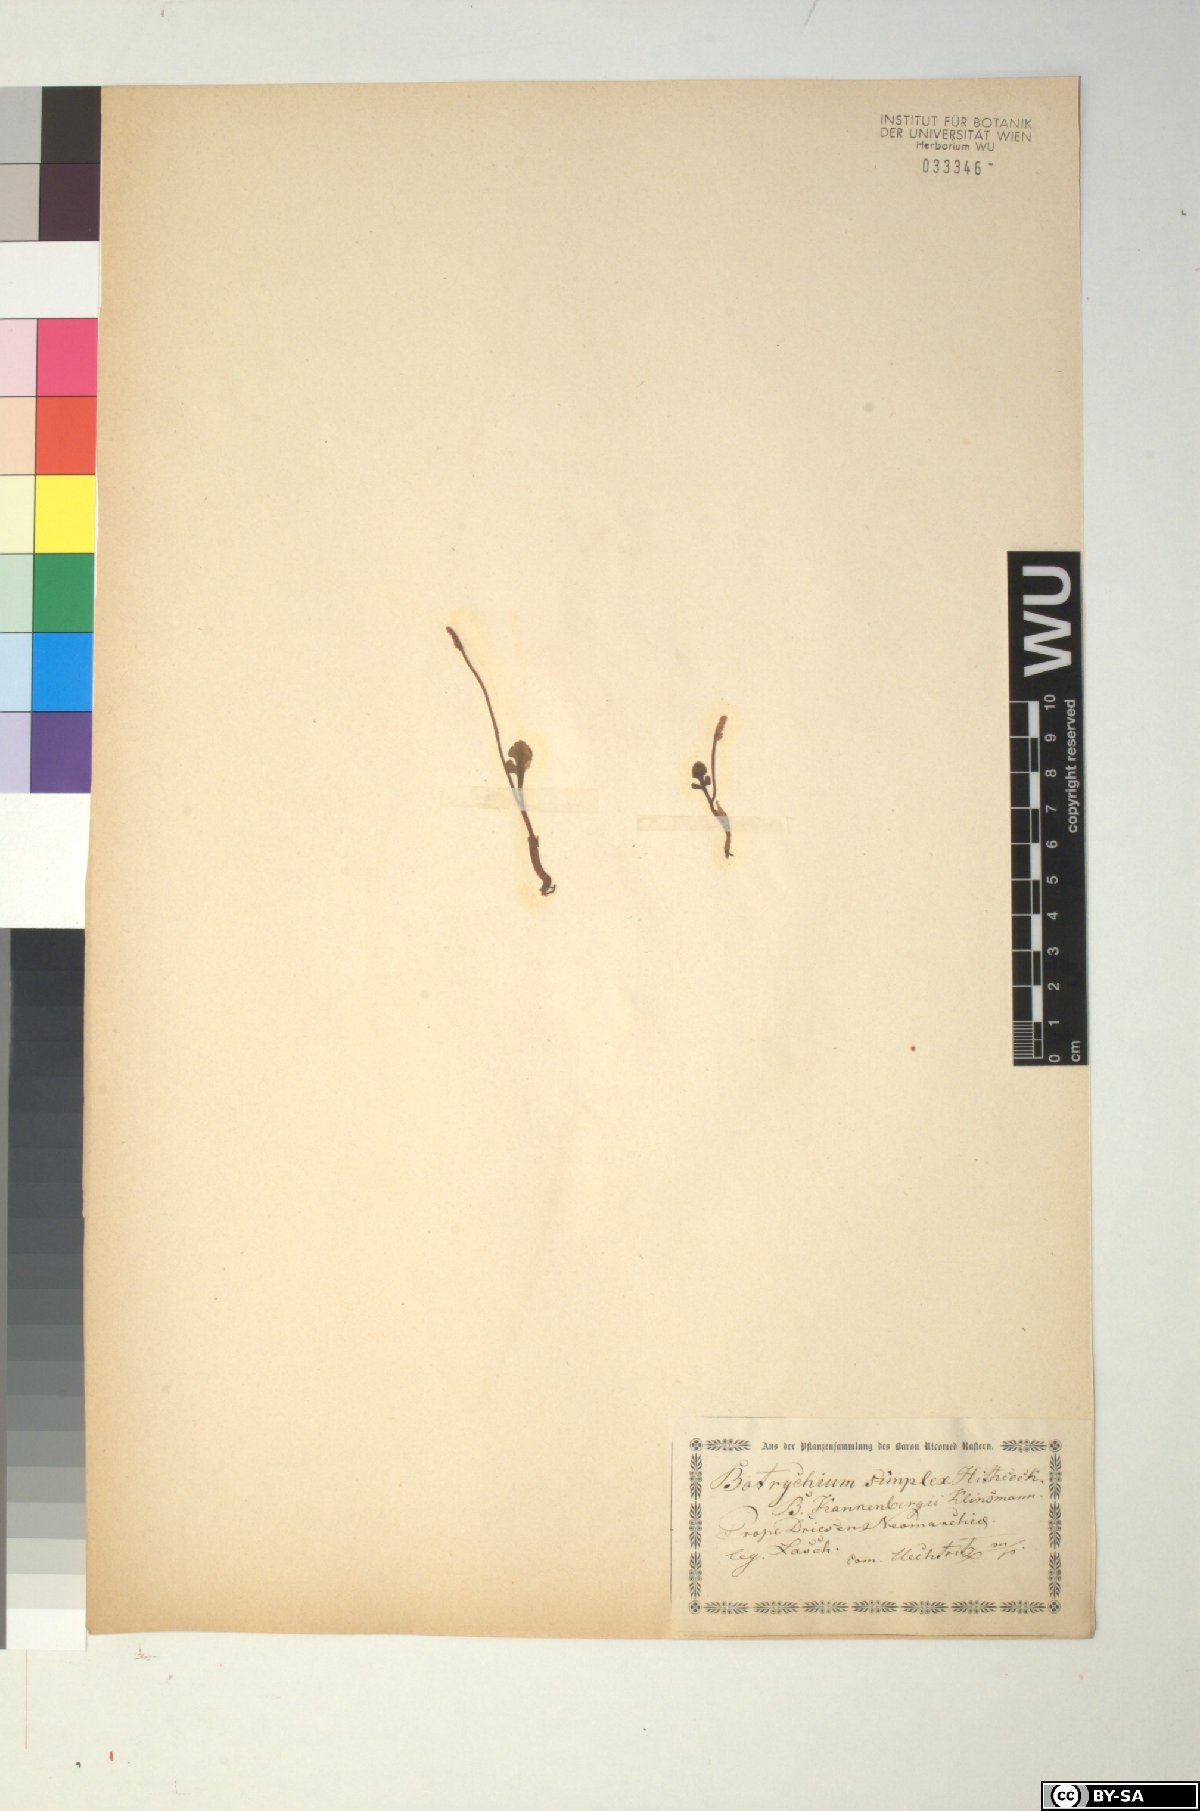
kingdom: Plantae
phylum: Tracheophyta
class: Polypodiopsida
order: Ophioglossales
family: Ophioglossaceae
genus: Botrychium
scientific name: Botrychium simplex
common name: Least moonwort
